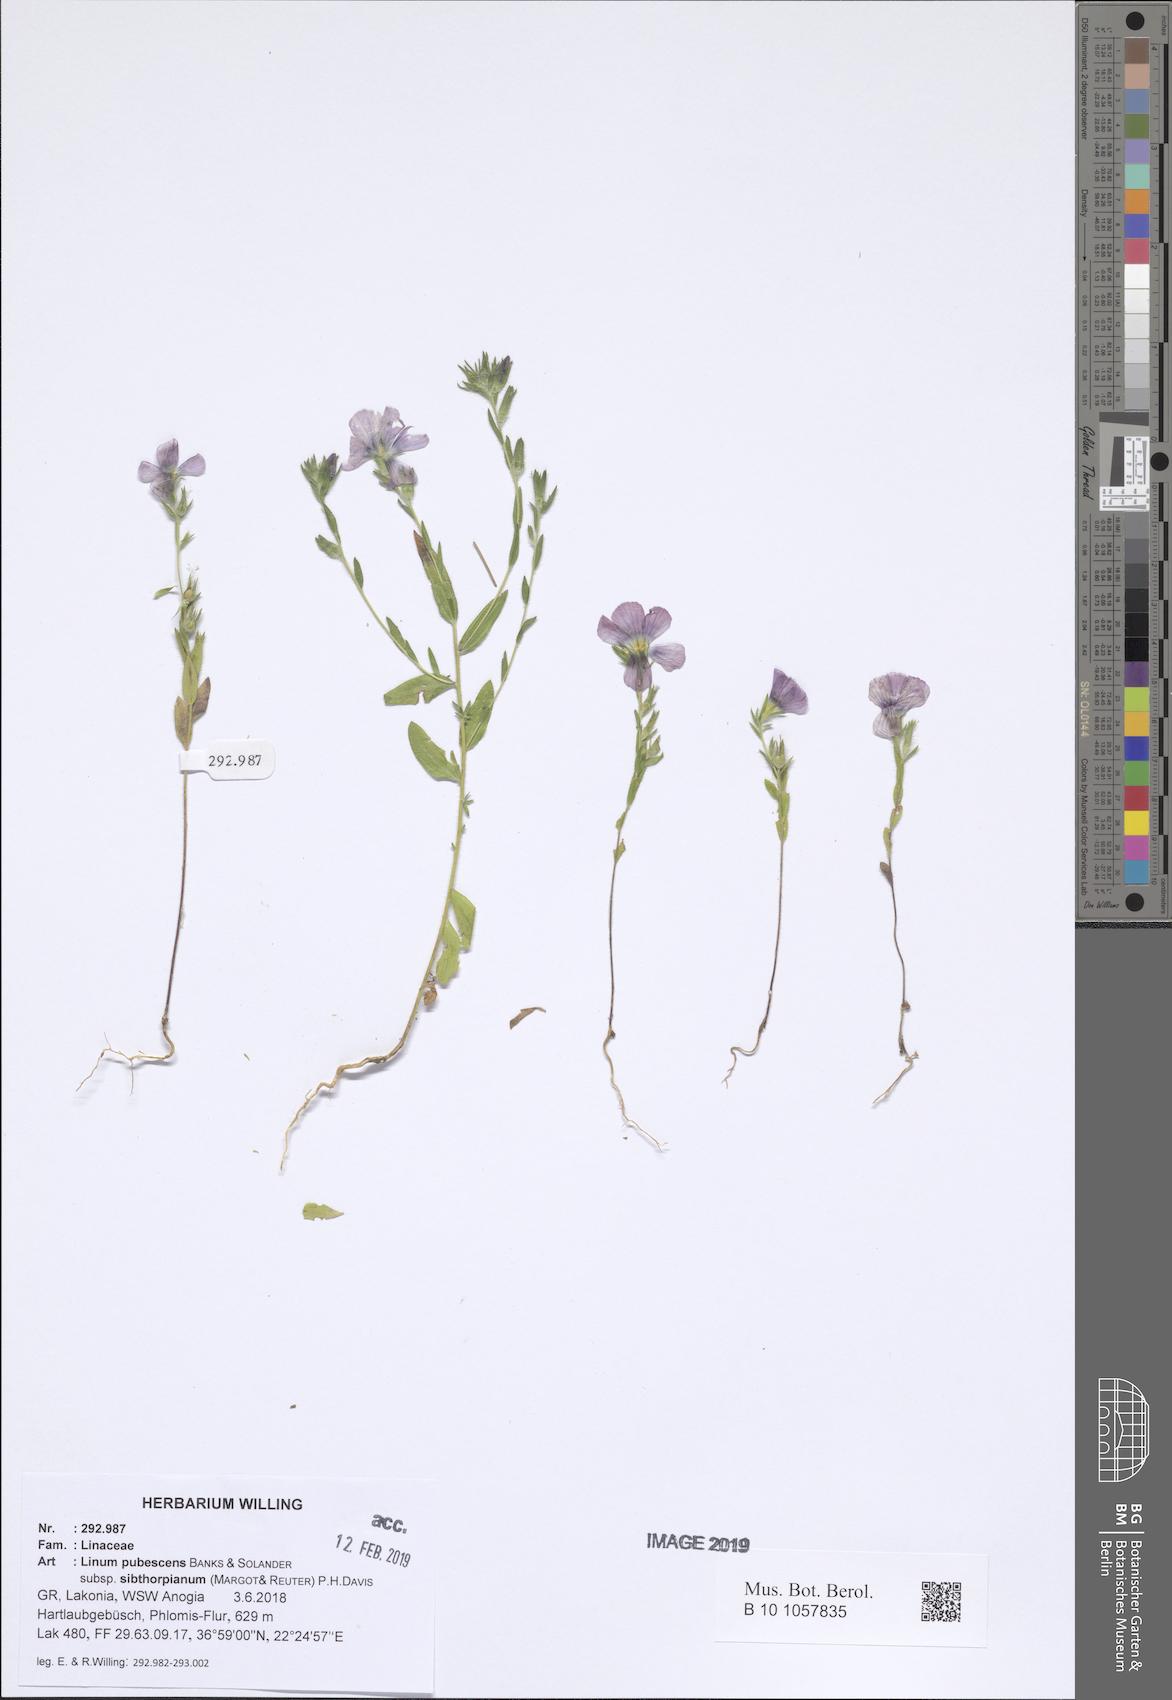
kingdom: Plantae
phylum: Tracheophyta
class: Magnoliopsida
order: Malpighiales
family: Linaceae
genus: Linum
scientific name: Linum pubescens
